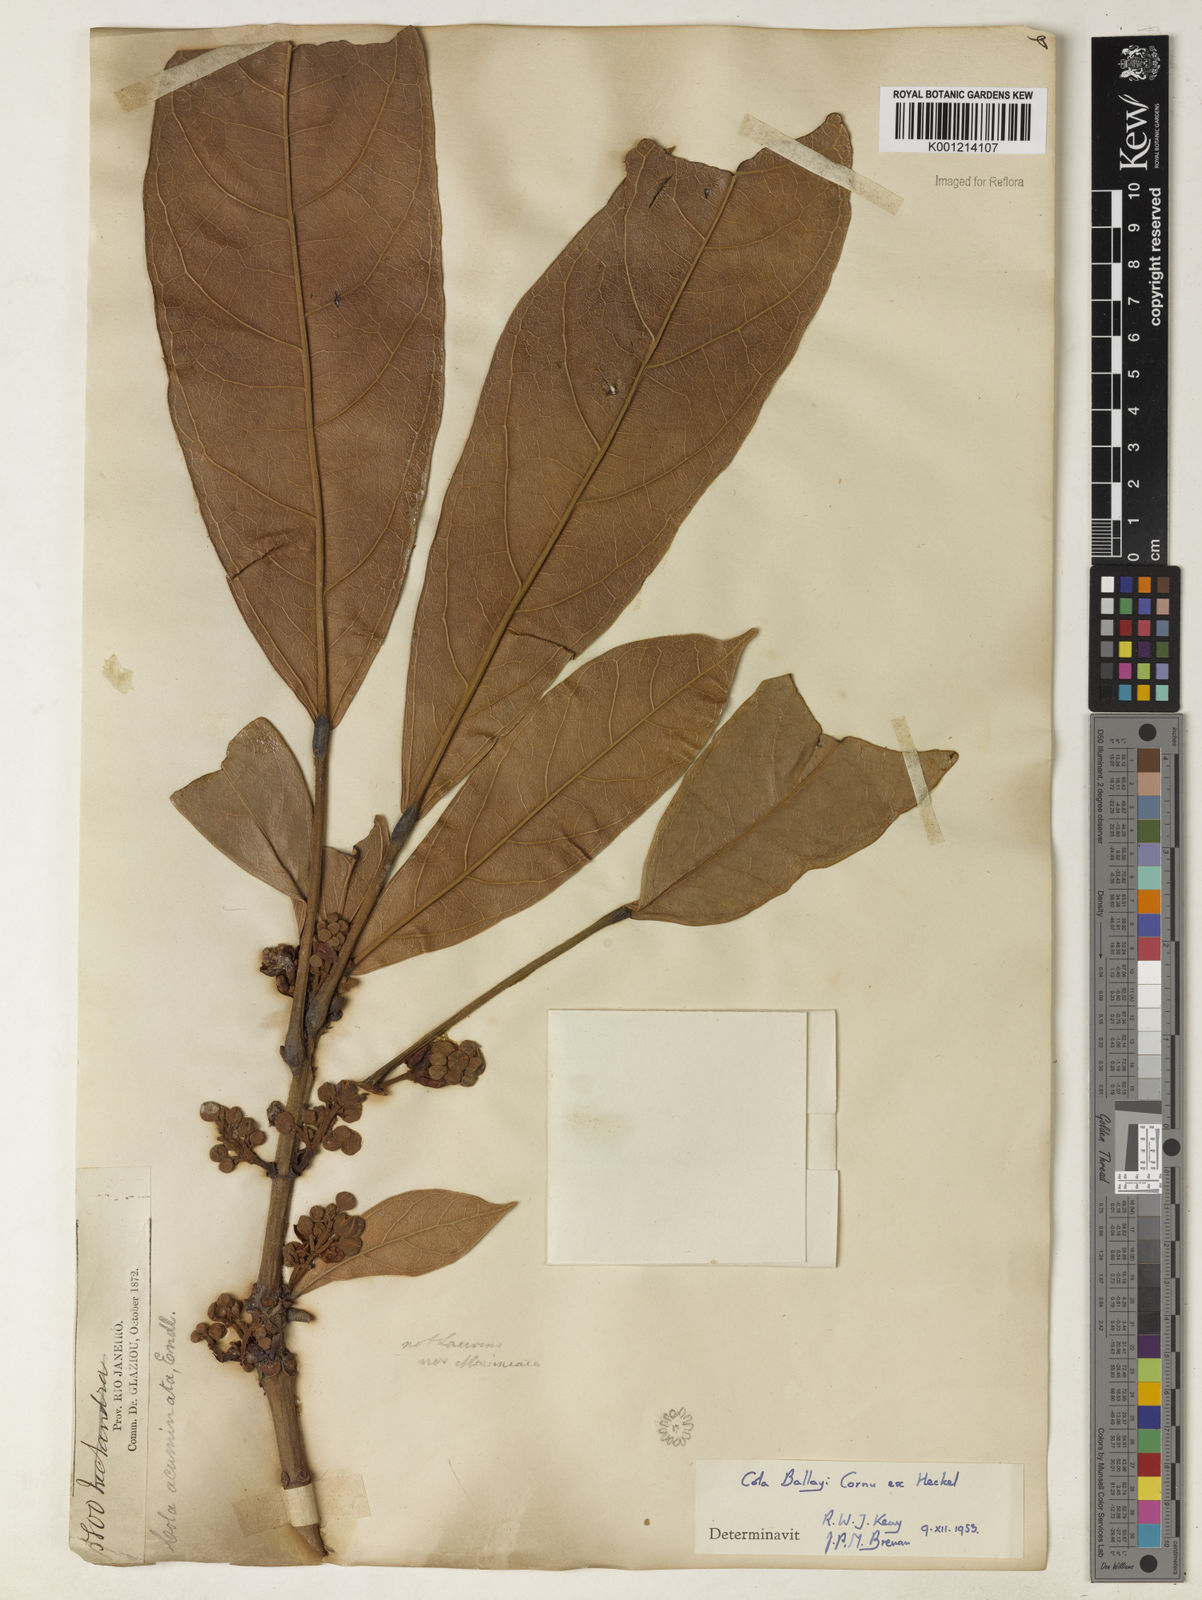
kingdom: Plantae
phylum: Tracheophyta
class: Magnoliopsida
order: Malvales
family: Malvaceae
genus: Cola
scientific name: Cola ballayi
